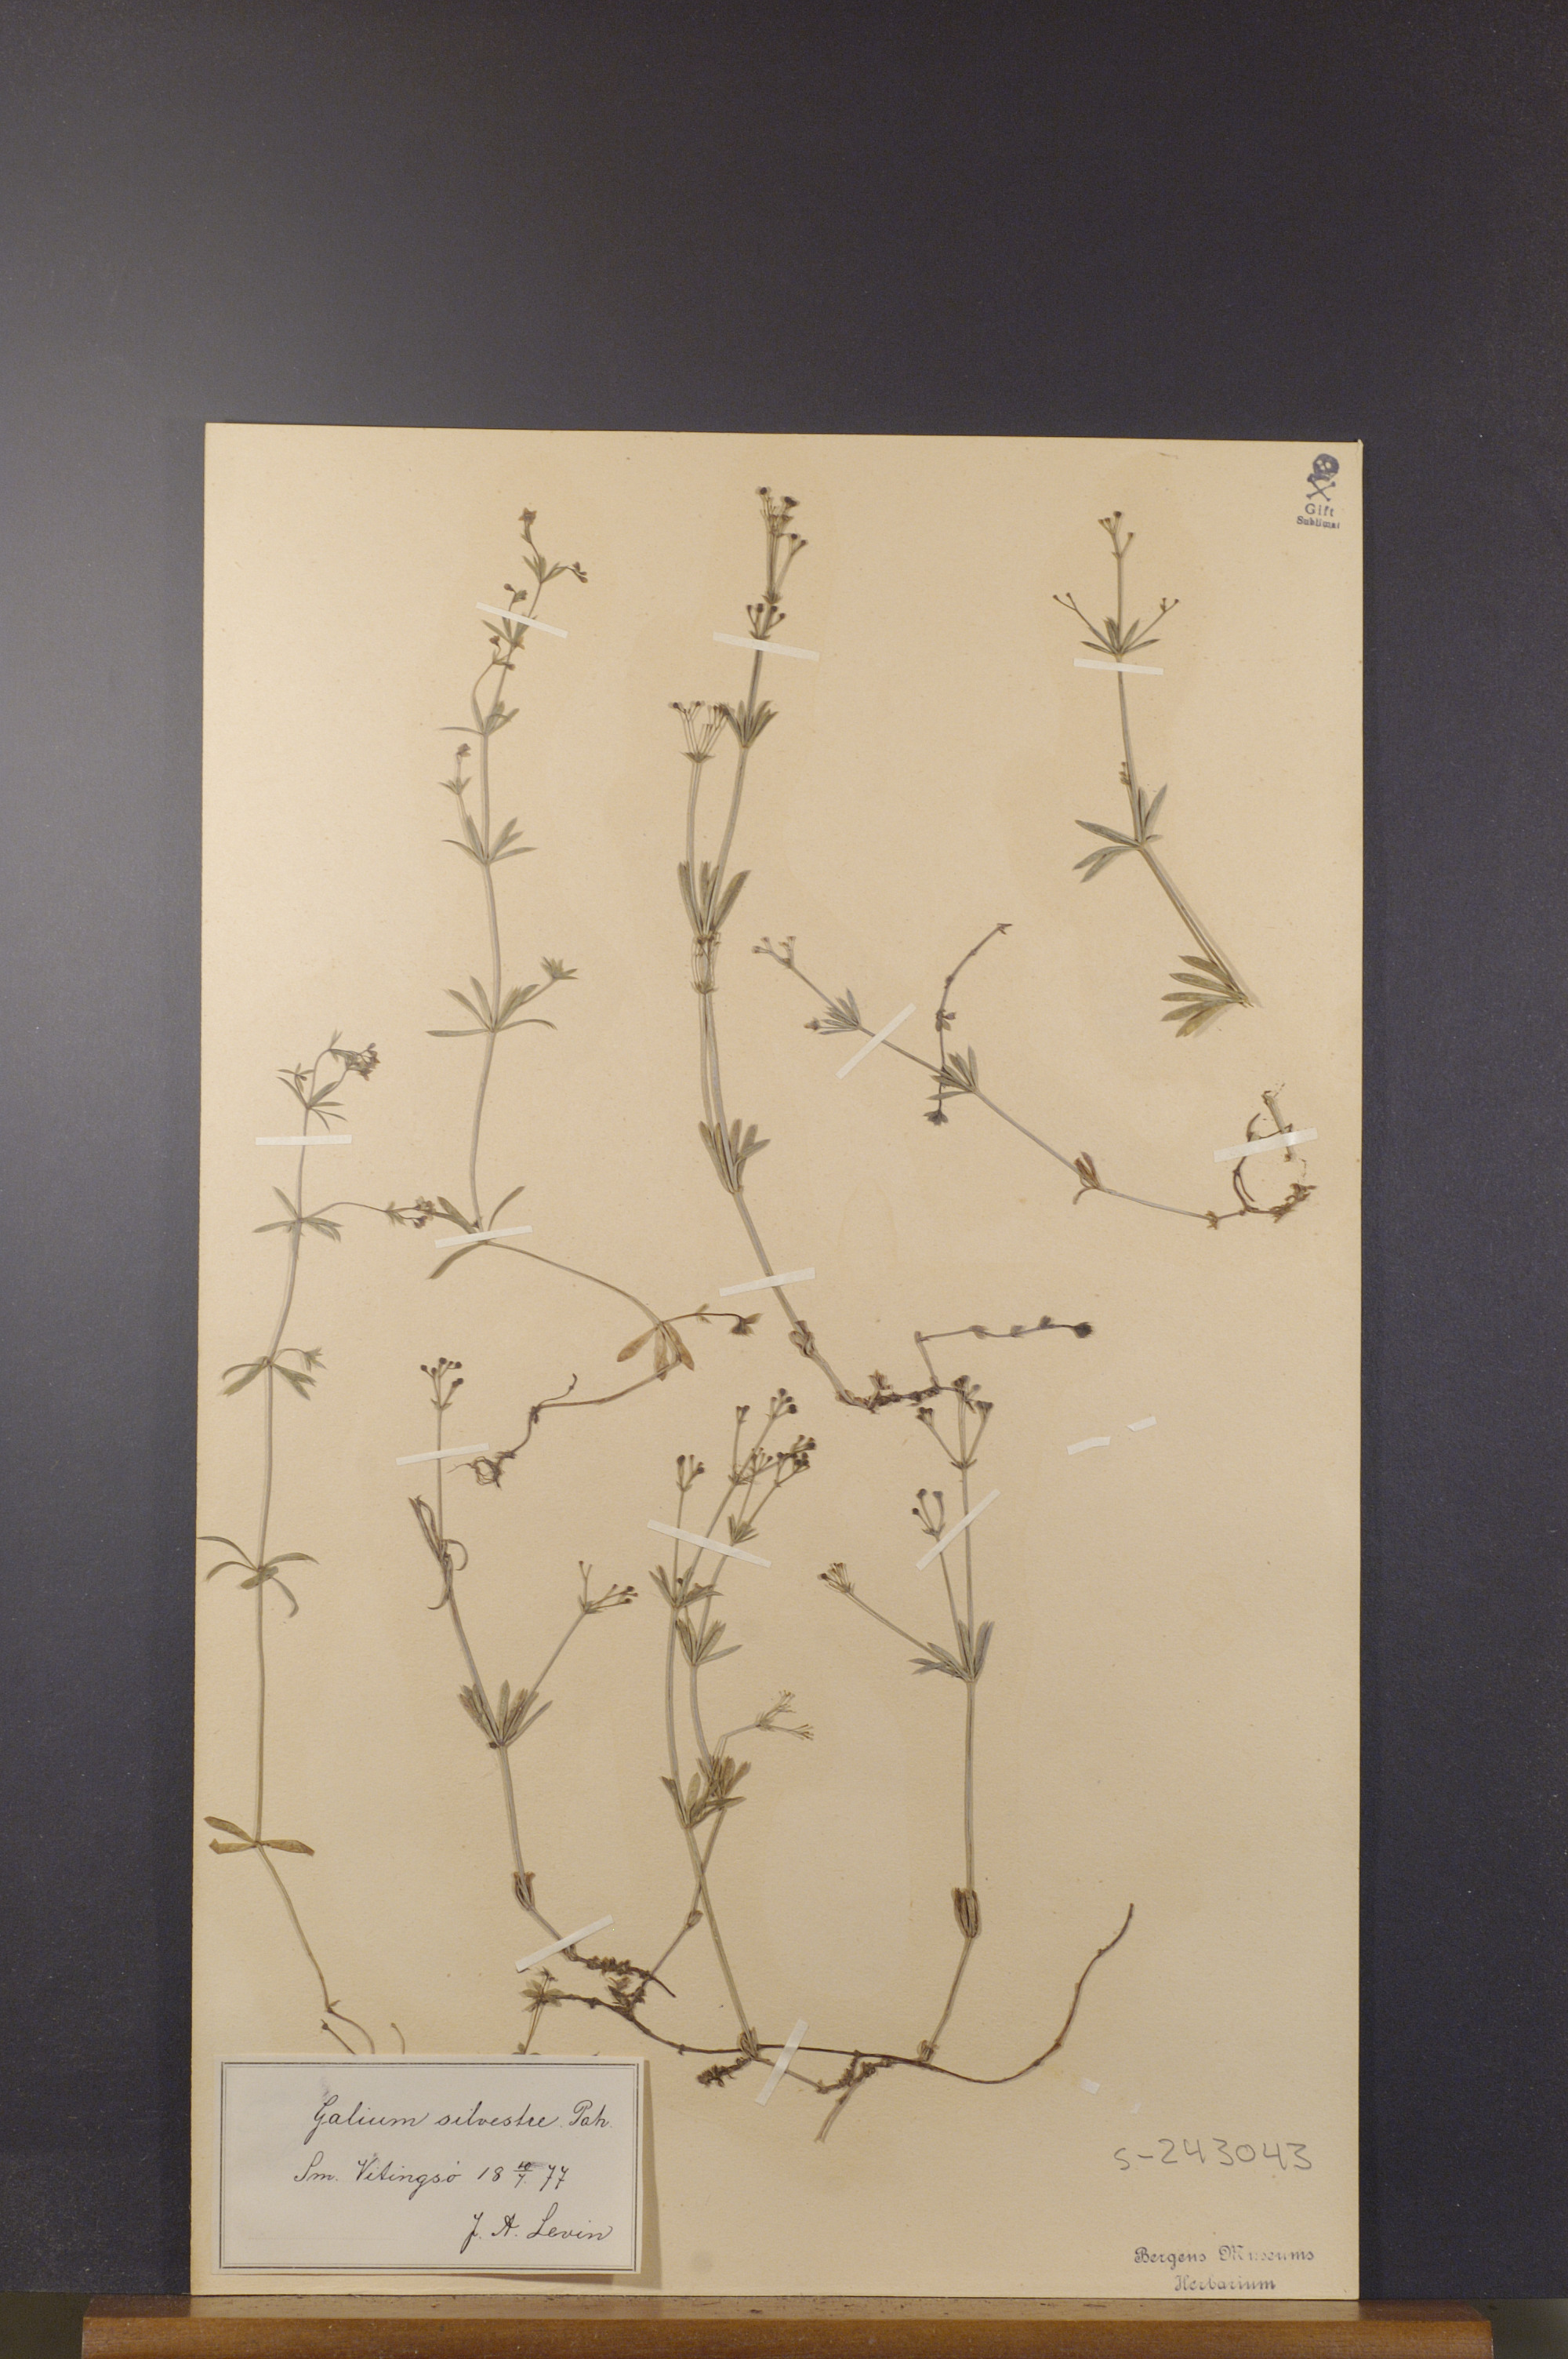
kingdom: Plantae
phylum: Tracheophyta
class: Magnoliopsida
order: Gentianales
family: Rubiaceae
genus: Galium
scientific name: Galium pumilum
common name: Slender bedstraw
